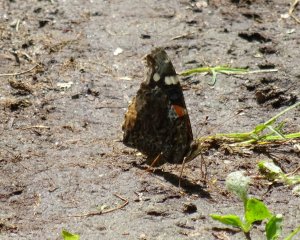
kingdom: Animalia
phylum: Arthropoda
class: Insecta
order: Lepidoptera
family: Nymphalidae
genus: Vanessa
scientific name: Vanessa atalanta
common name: Red Admiral
